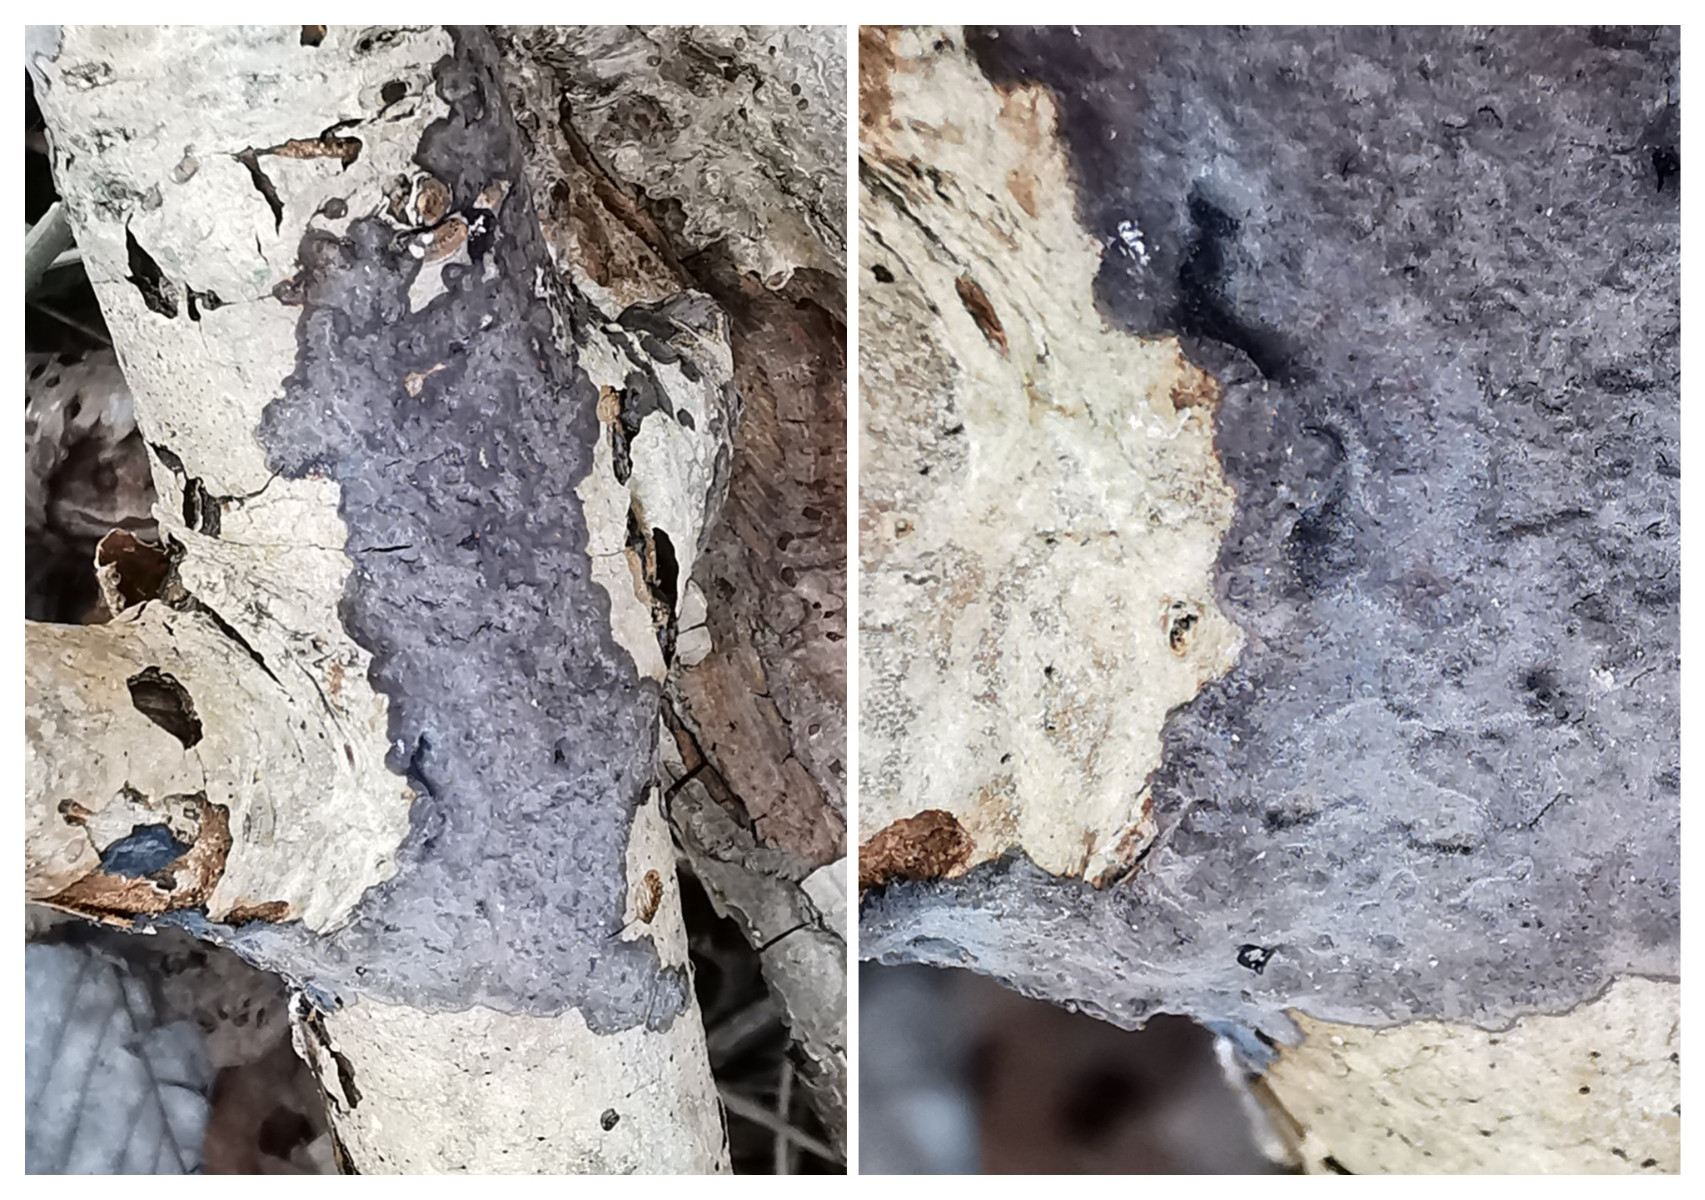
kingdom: Fungi
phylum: Basidiomycota
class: Agaricomycetes
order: Russulales
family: Peniophoraceae
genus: Peniophora
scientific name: Peniophora limitata
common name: mørkrandet voksskind
